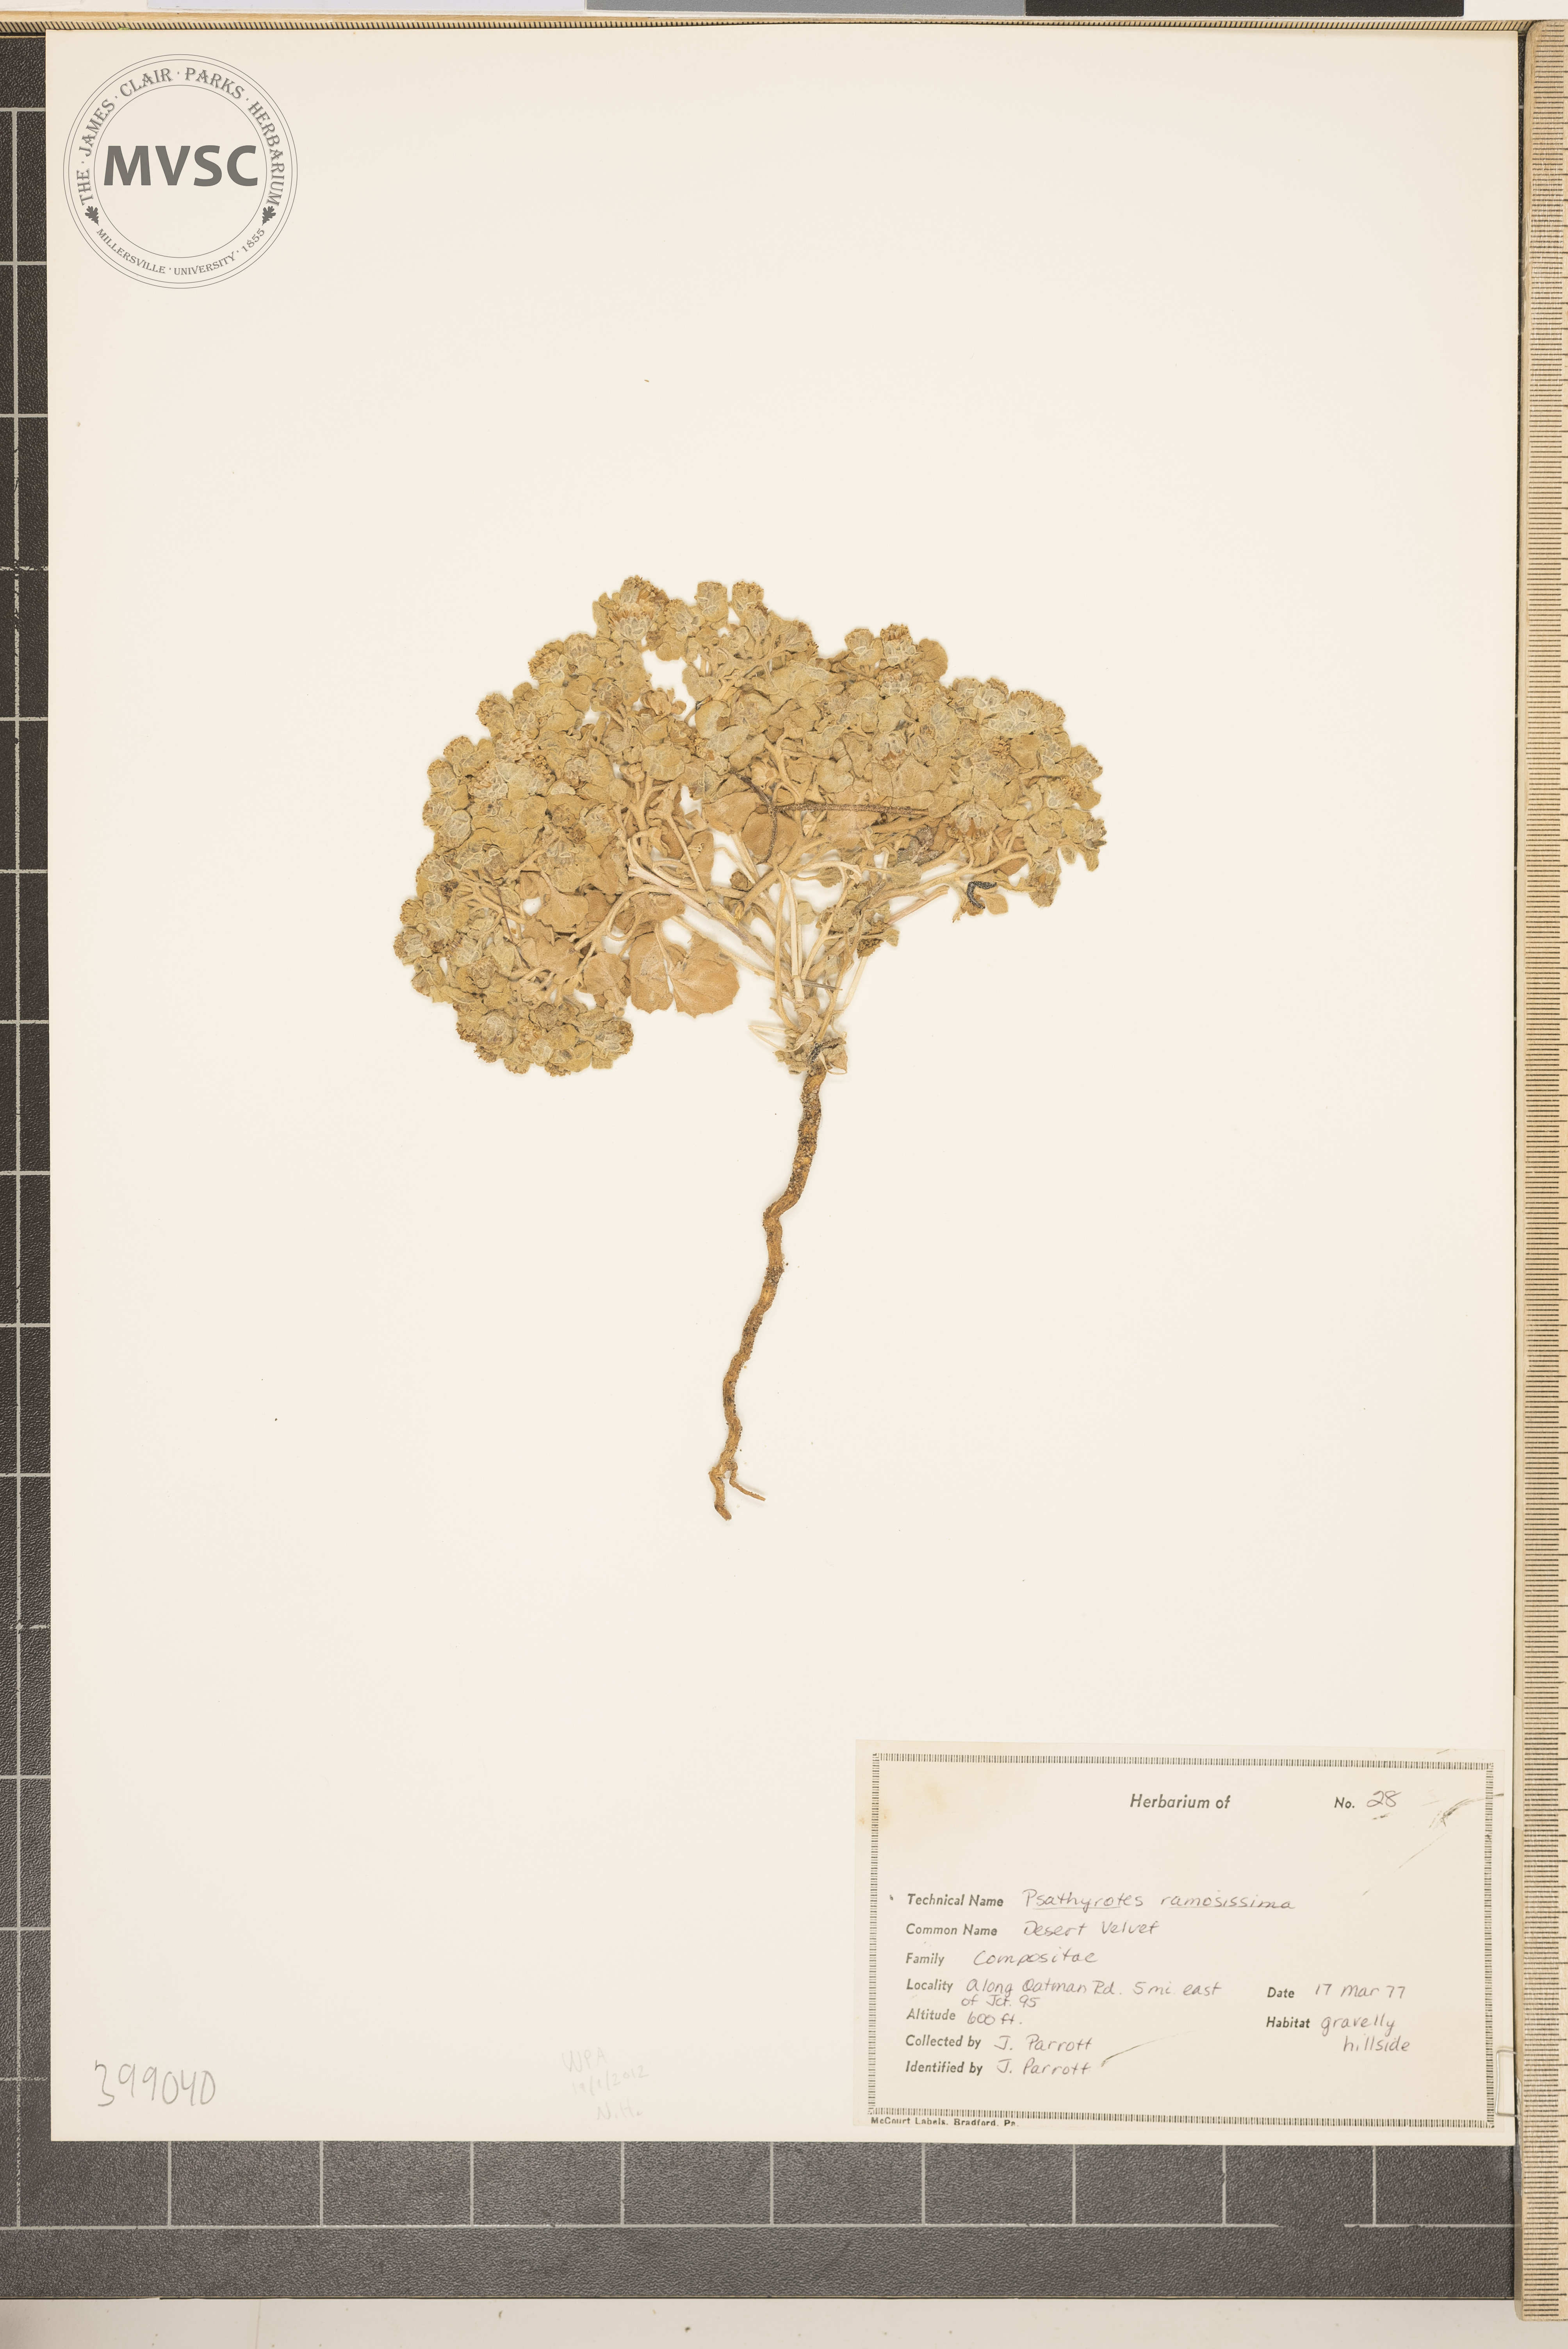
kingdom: Plantae
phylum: Tracheophyta
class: Magnoliopsida
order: Asterales
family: Asteraceae
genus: Psathyrotes
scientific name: Psathyrotes ramosissima
